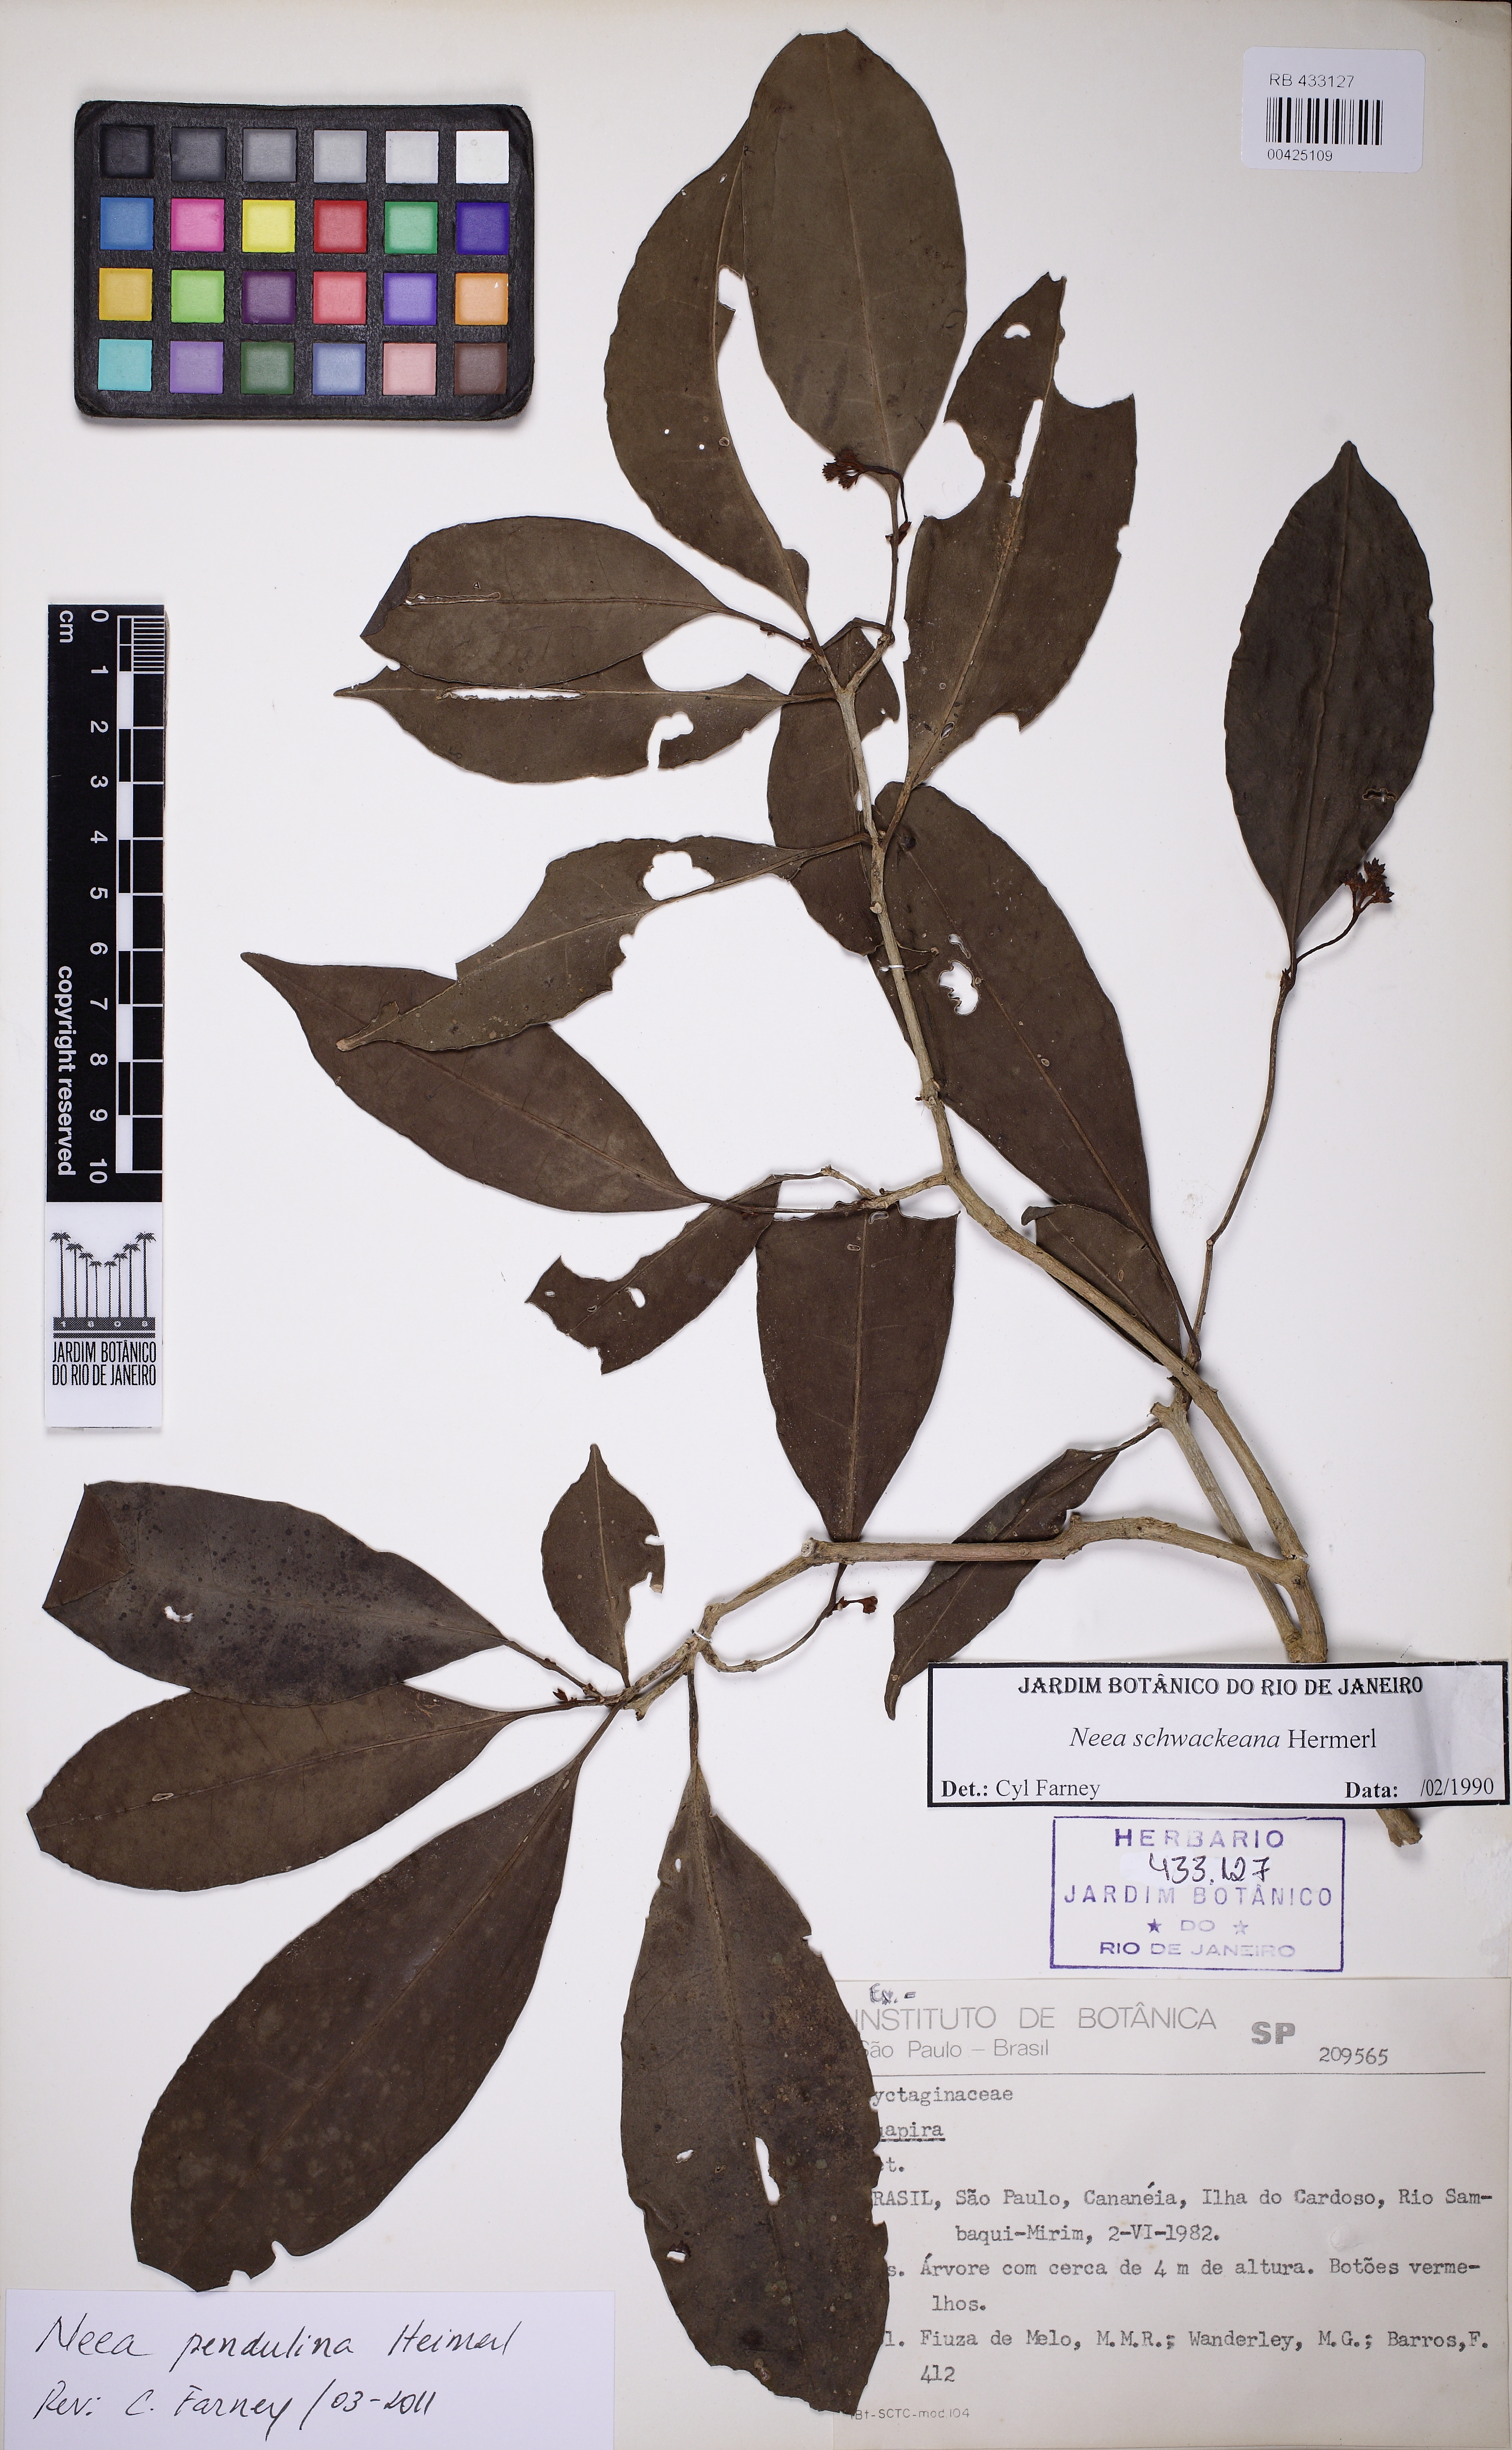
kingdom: Plantae
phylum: Tracheophyta
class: Magnoliopsida
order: Caryophyllales
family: Nyctaginaceae
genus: Neea
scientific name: Neea pendulina
